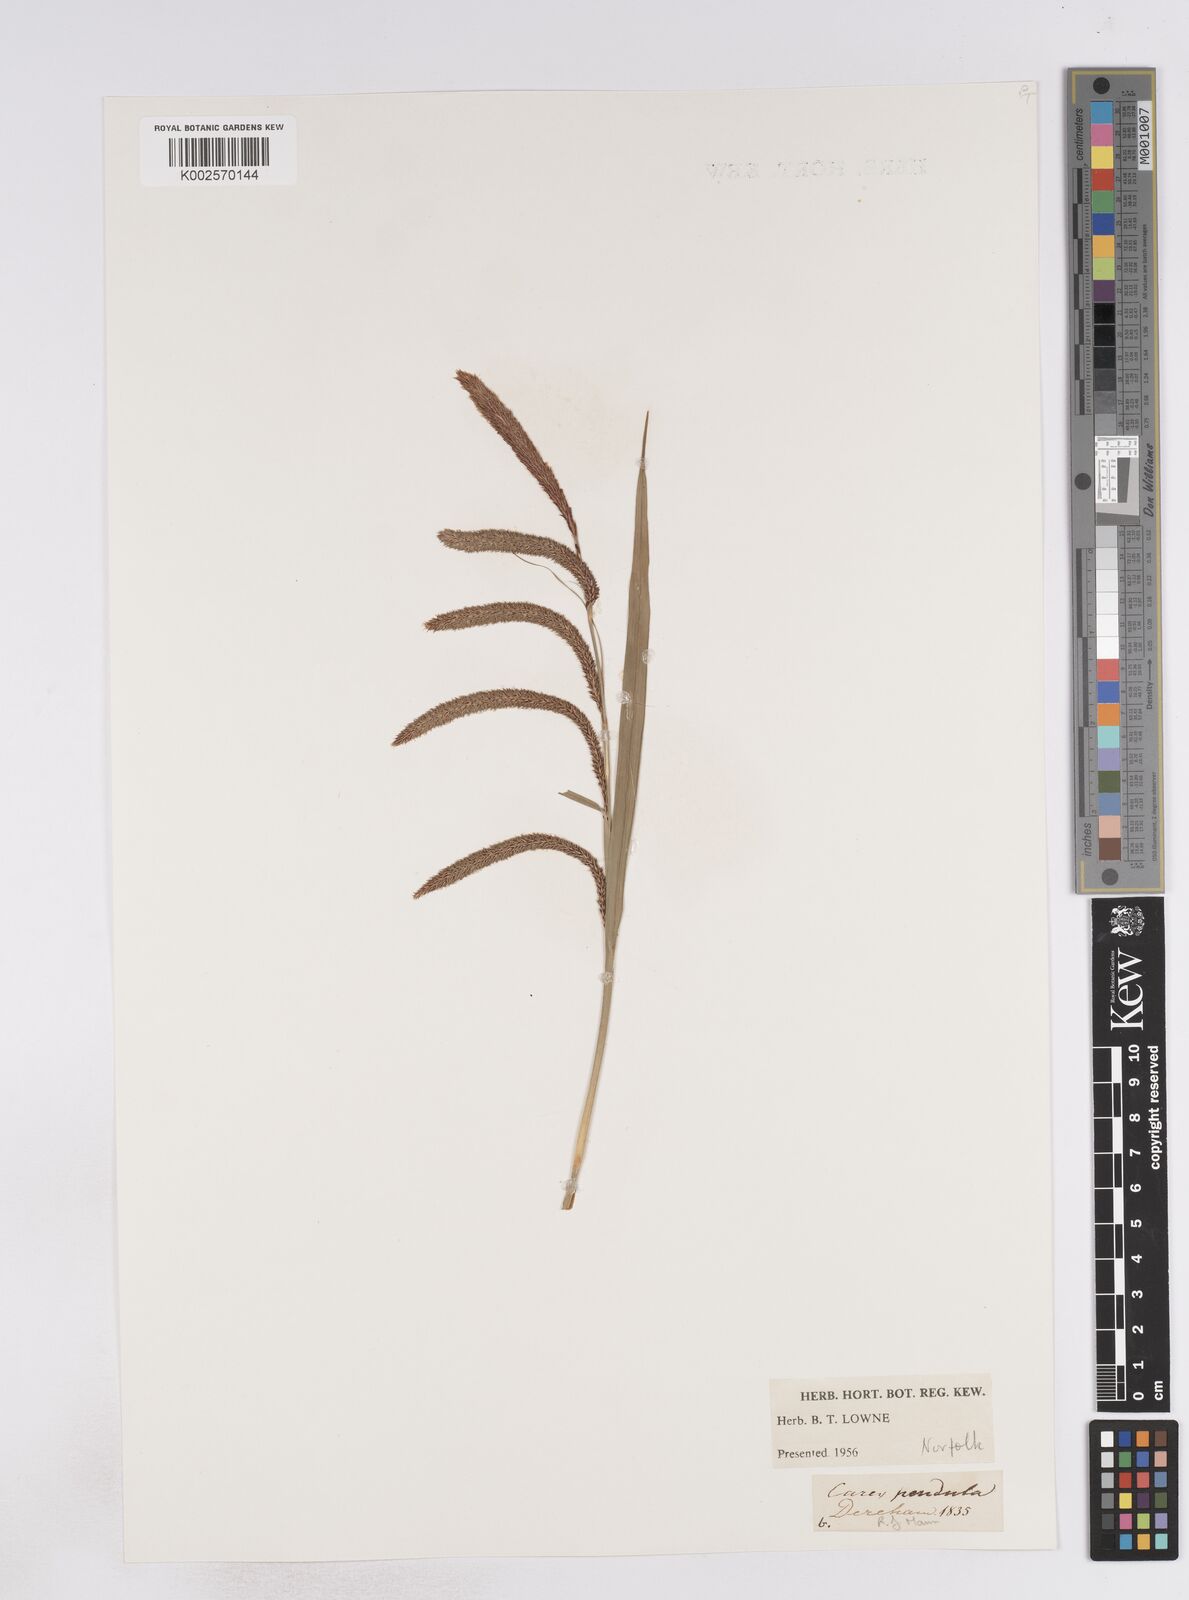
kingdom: Plantae
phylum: Tracheophyta
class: Liliopsida
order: Poales
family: Cyperaceae
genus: Carex
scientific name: Carex pendula
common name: Pendulous sedge
